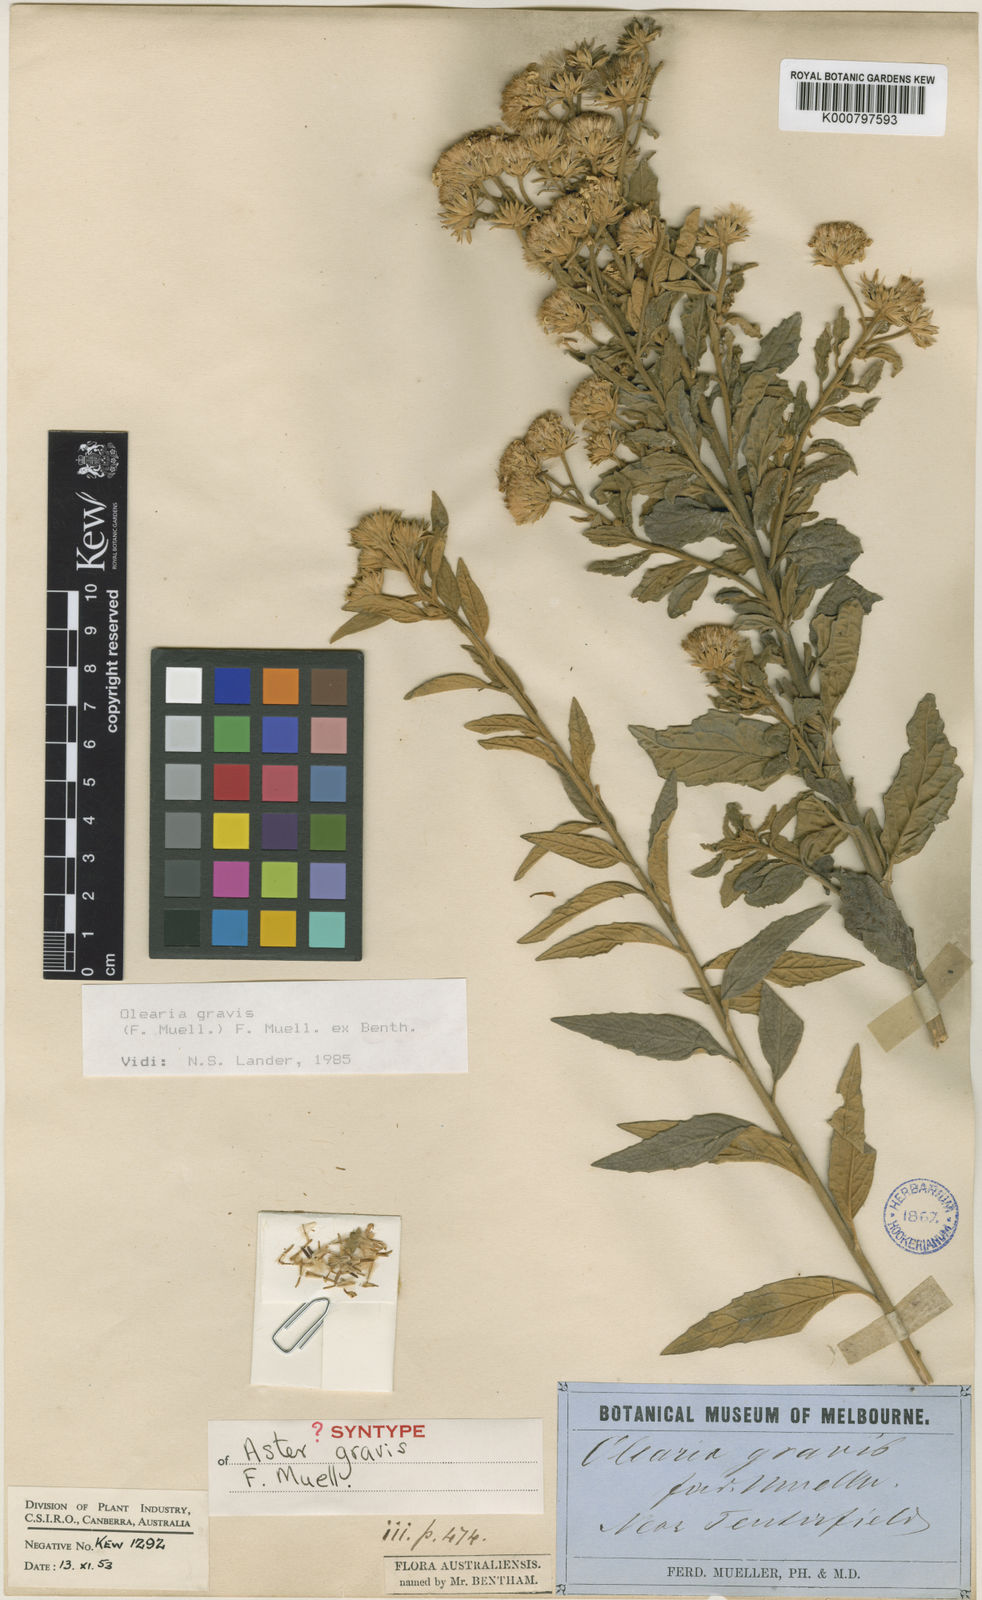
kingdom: Plantae
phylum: Tracheophyta
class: Magnoliopsida
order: Asterales
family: Asteraceae
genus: Olearia
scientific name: Olearia gravis
